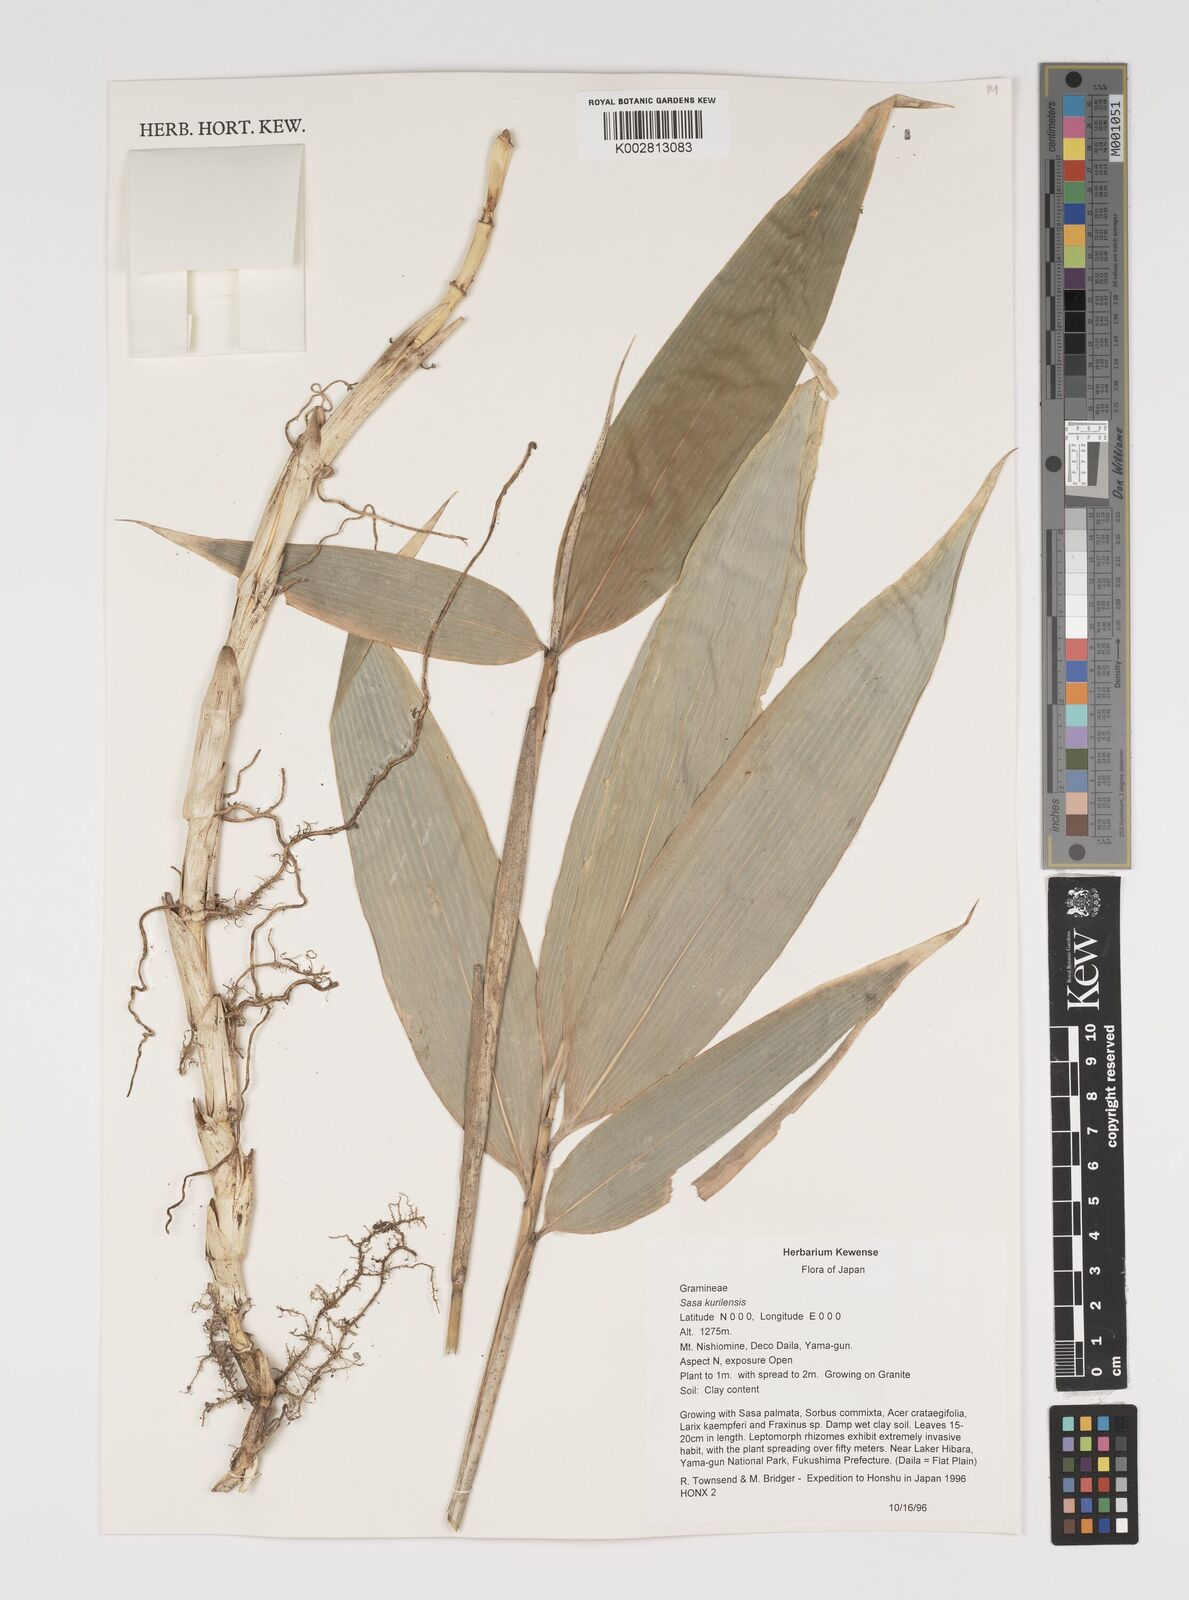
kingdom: Plantae
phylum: Tracheophyta
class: Liliopsida
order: Poales
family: Poaceae
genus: Sasa
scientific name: Sasa kurilensis
